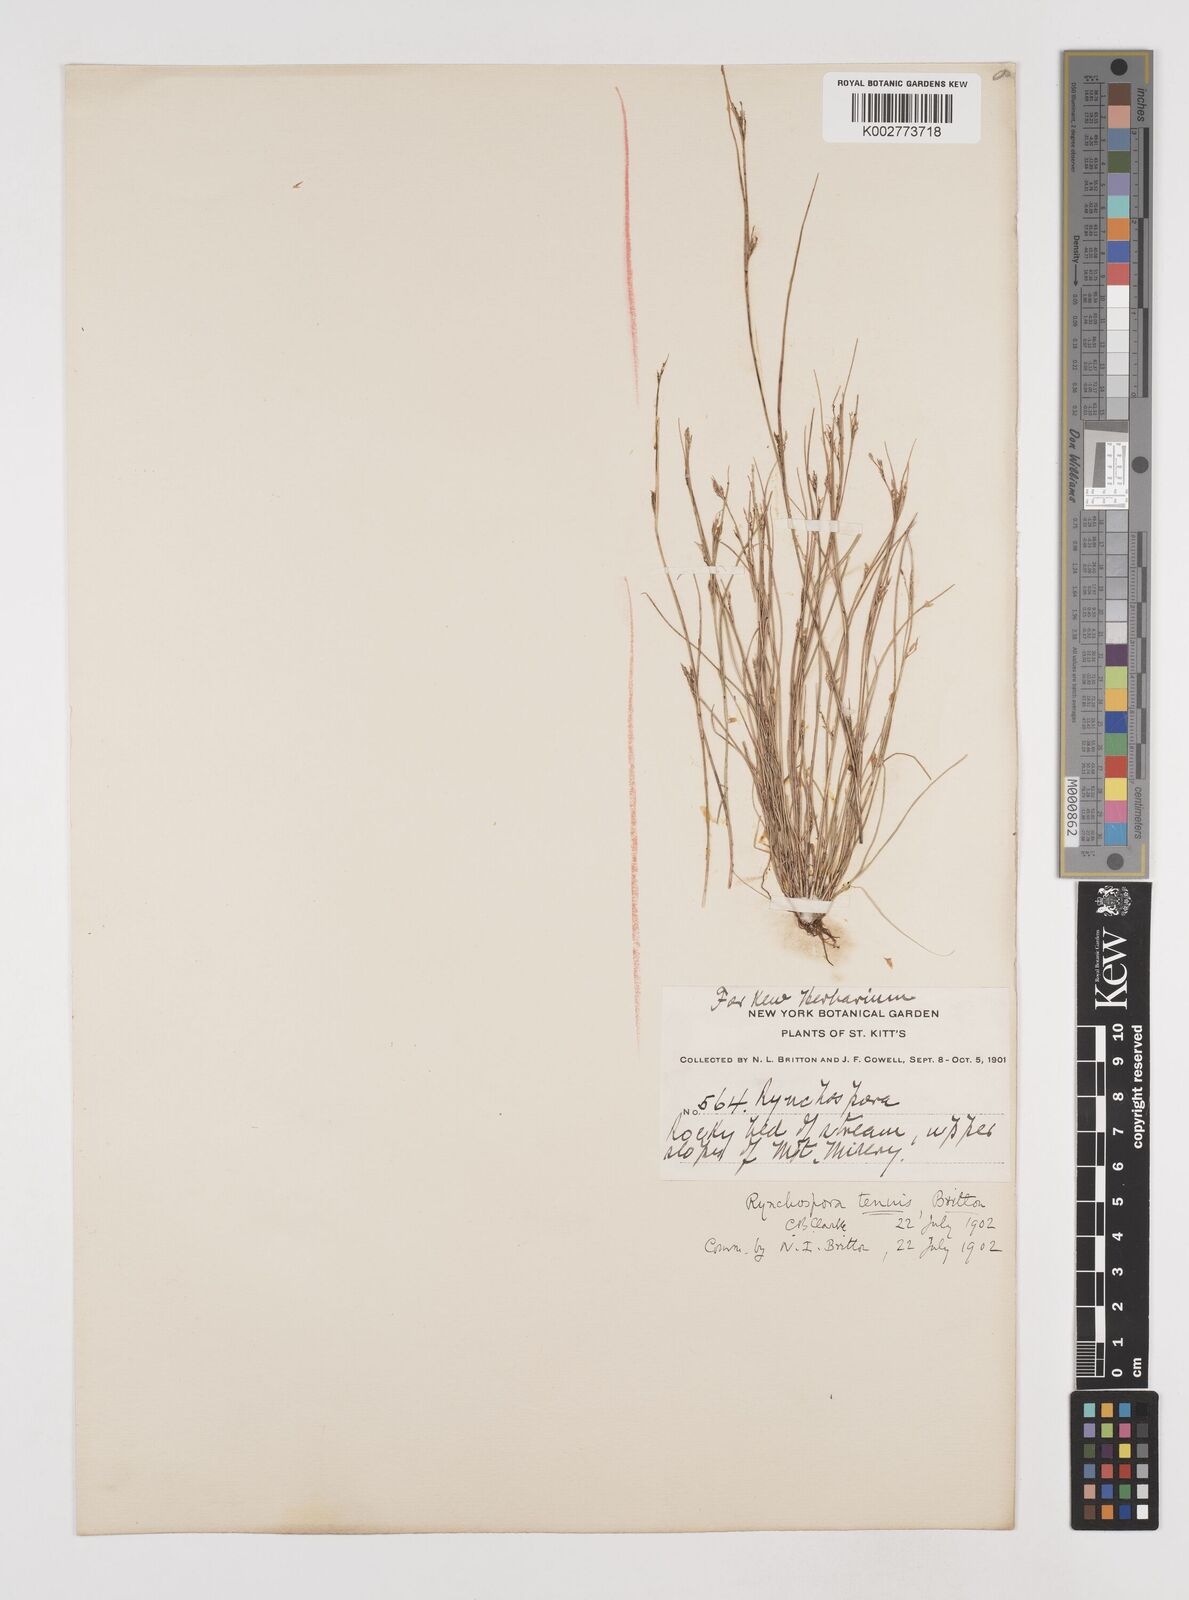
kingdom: Plantae
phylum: Tracheophyta
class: Liliopsida
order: Poales
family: Cyperaceae
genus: Rhynchospora
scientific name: Rhynchospora tenuis
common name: Quill beaksedge
